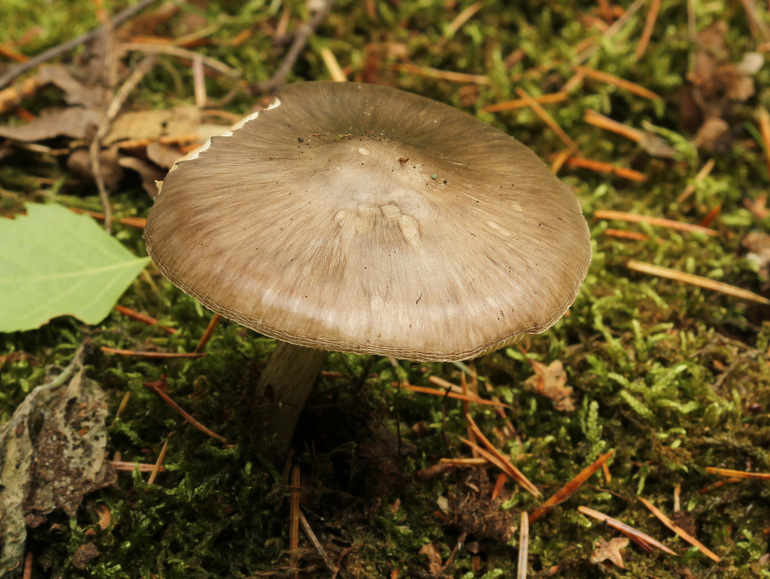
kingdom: Fungi
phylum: Basidiomycota
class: Agaricomycetes
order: Agaricales
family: Pluteaceae
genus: Pluteus
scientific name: Pluteus cervinus
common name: sodfarvet skærmhat
